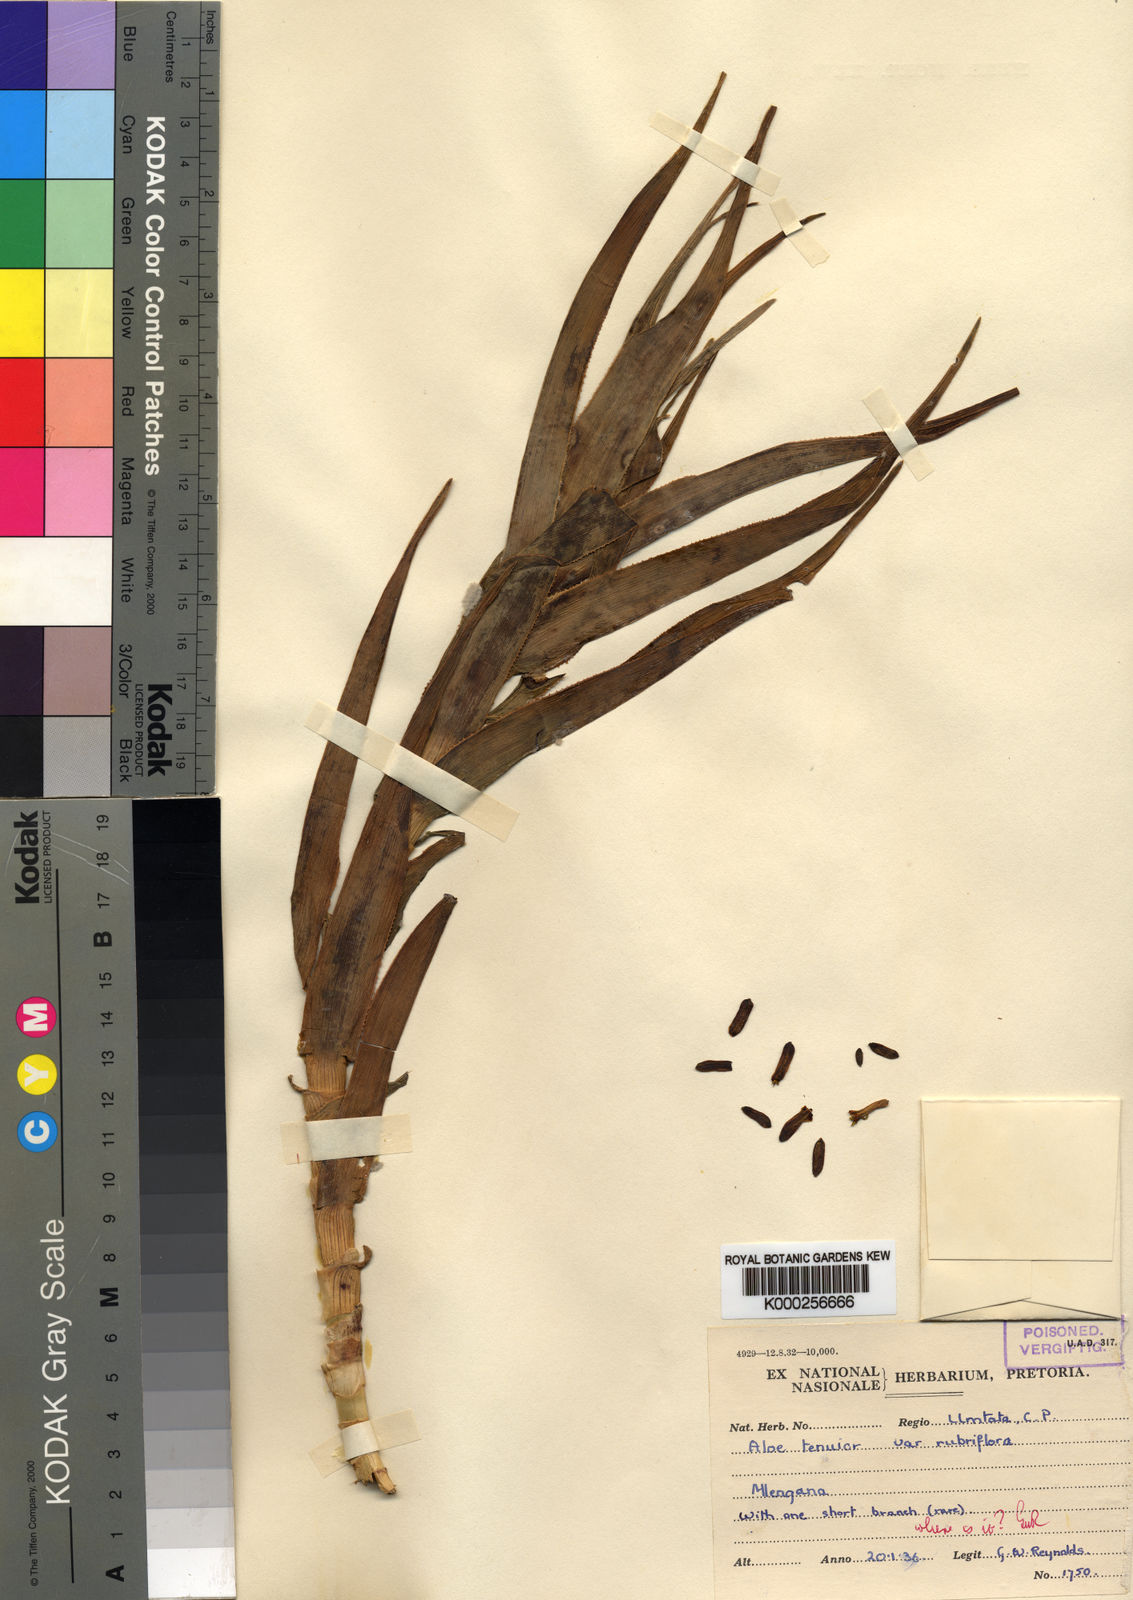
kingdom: Plantae
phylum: Tracheophyta
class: Liliopsida
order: Asparagales
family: Asphodelaceae
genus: Aloiampelos
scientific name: Aloiampelos tenuior
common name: Fence aloe
